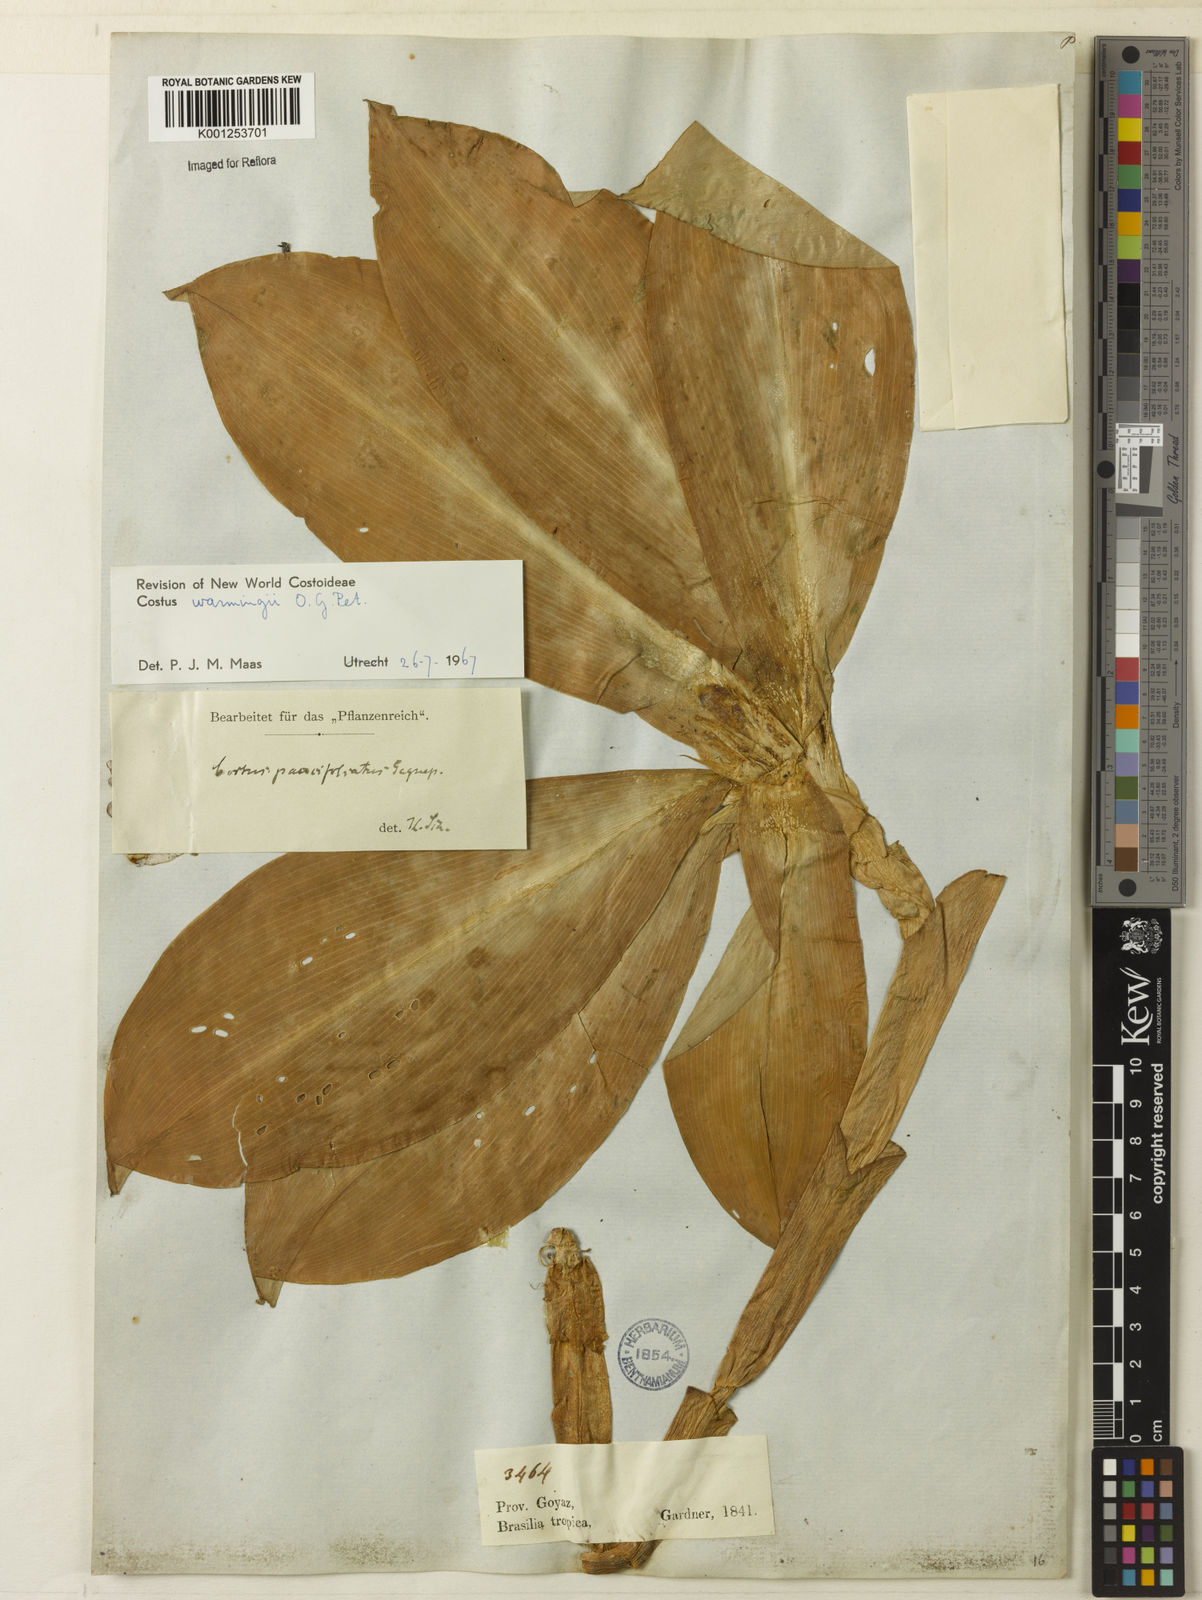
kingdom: Plantae
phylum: Tracheophyta
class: Liliopsida
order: Zingiberales
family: Costaceae
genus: Chamaecostus
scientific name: Chamaecostus subsessilis
